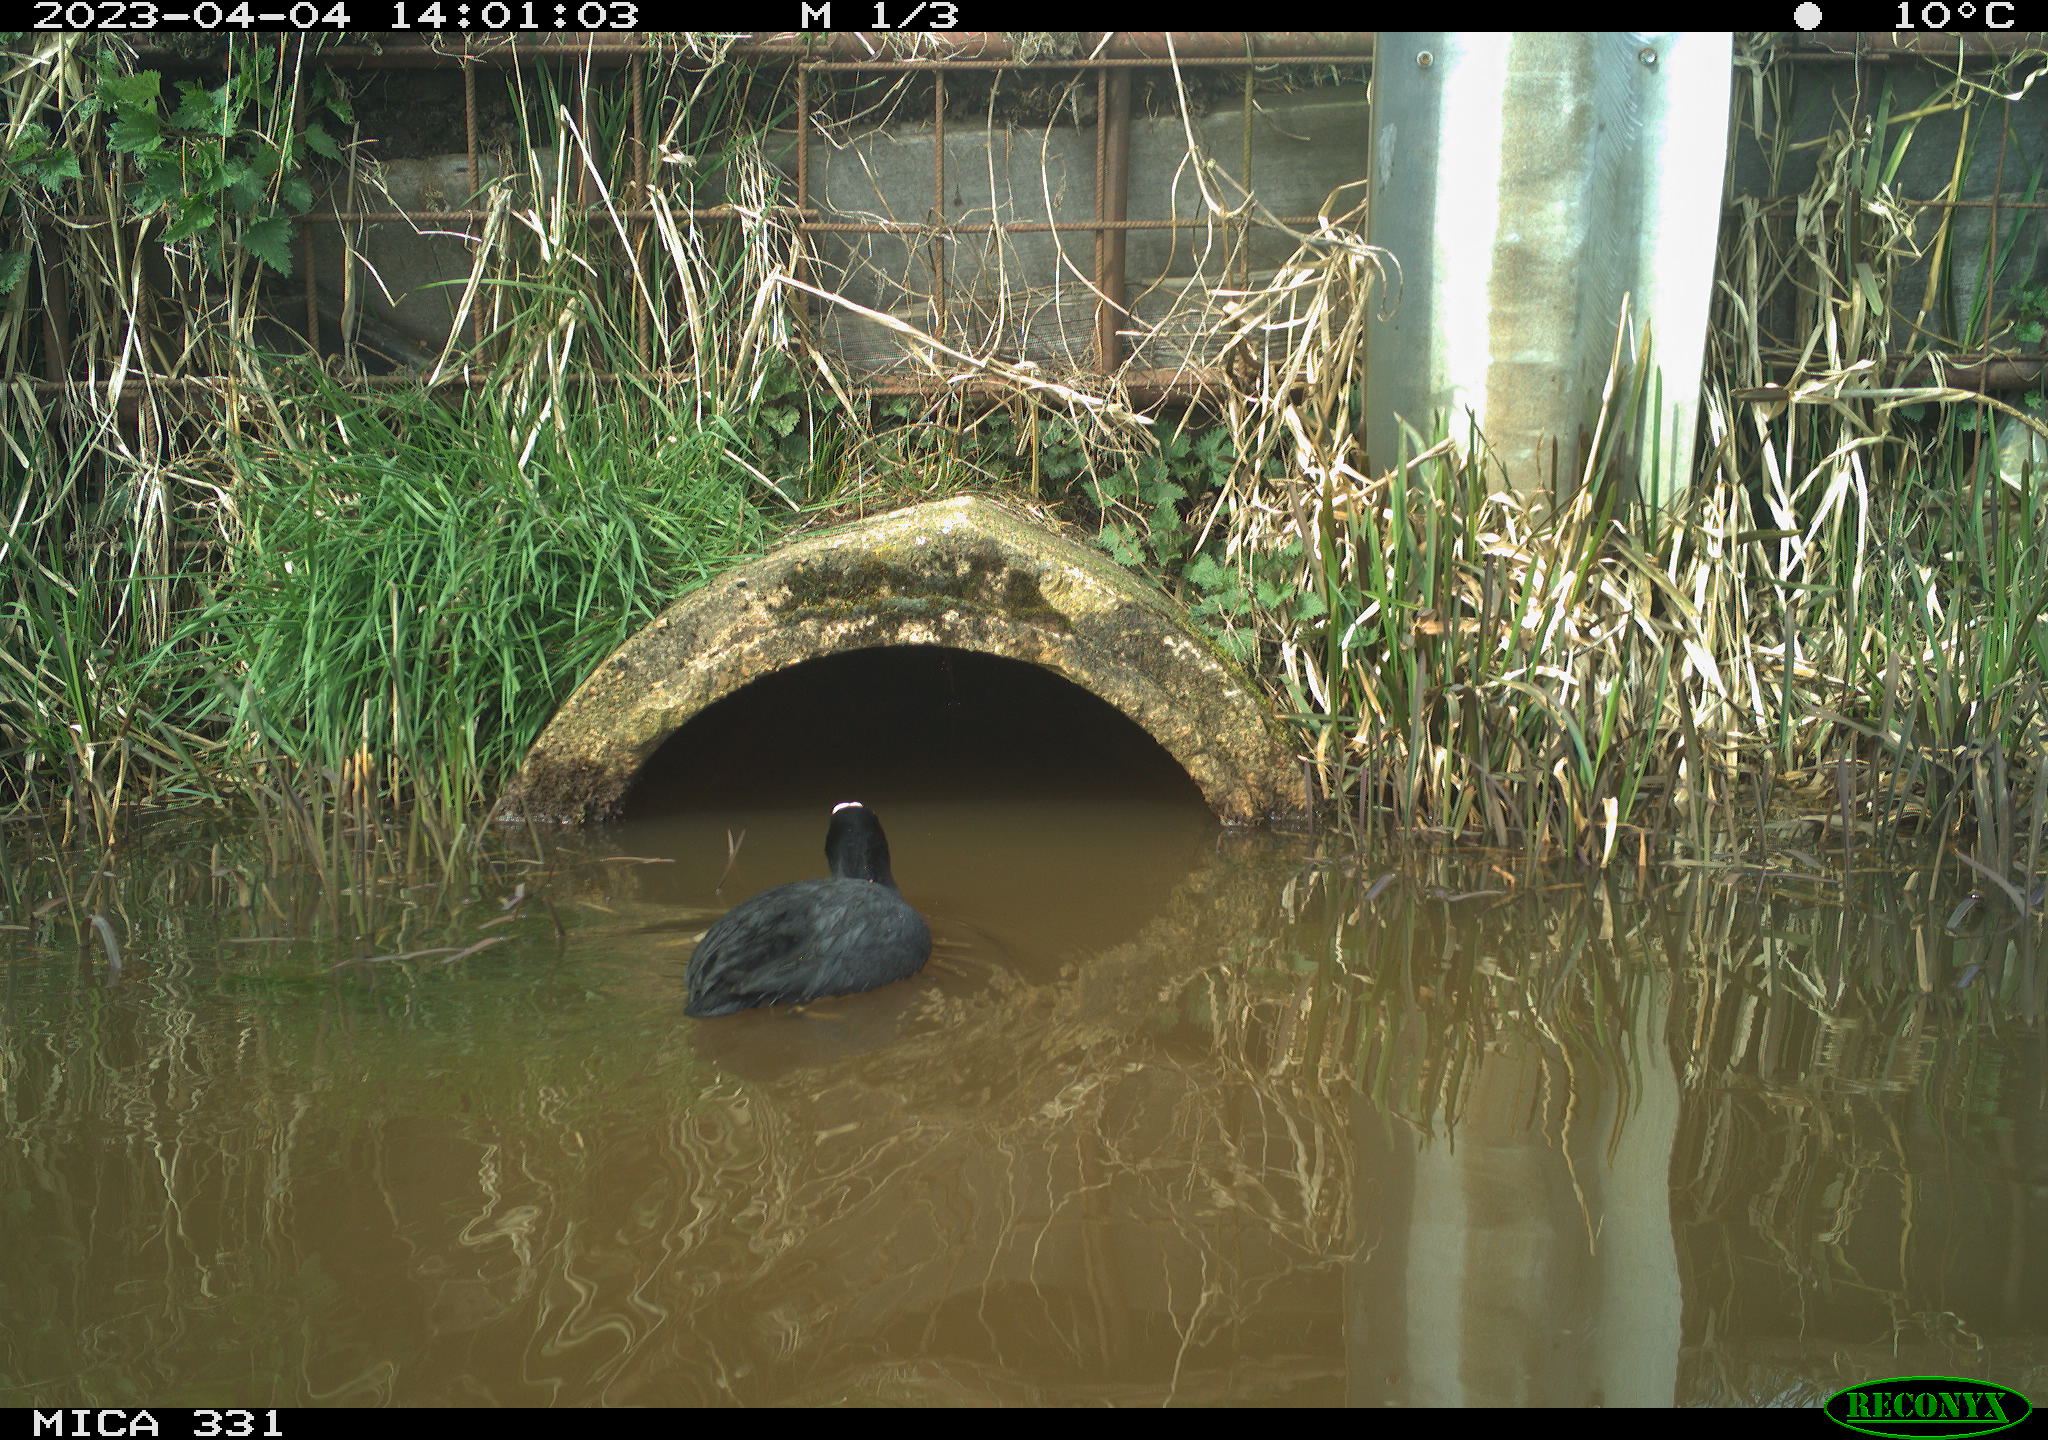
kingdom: Animalia
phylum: Chordata
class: Aves
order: Gruiformes
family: Rallidae
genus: Gallinula
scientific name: Gallinula chloropus
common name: Common moorhen
